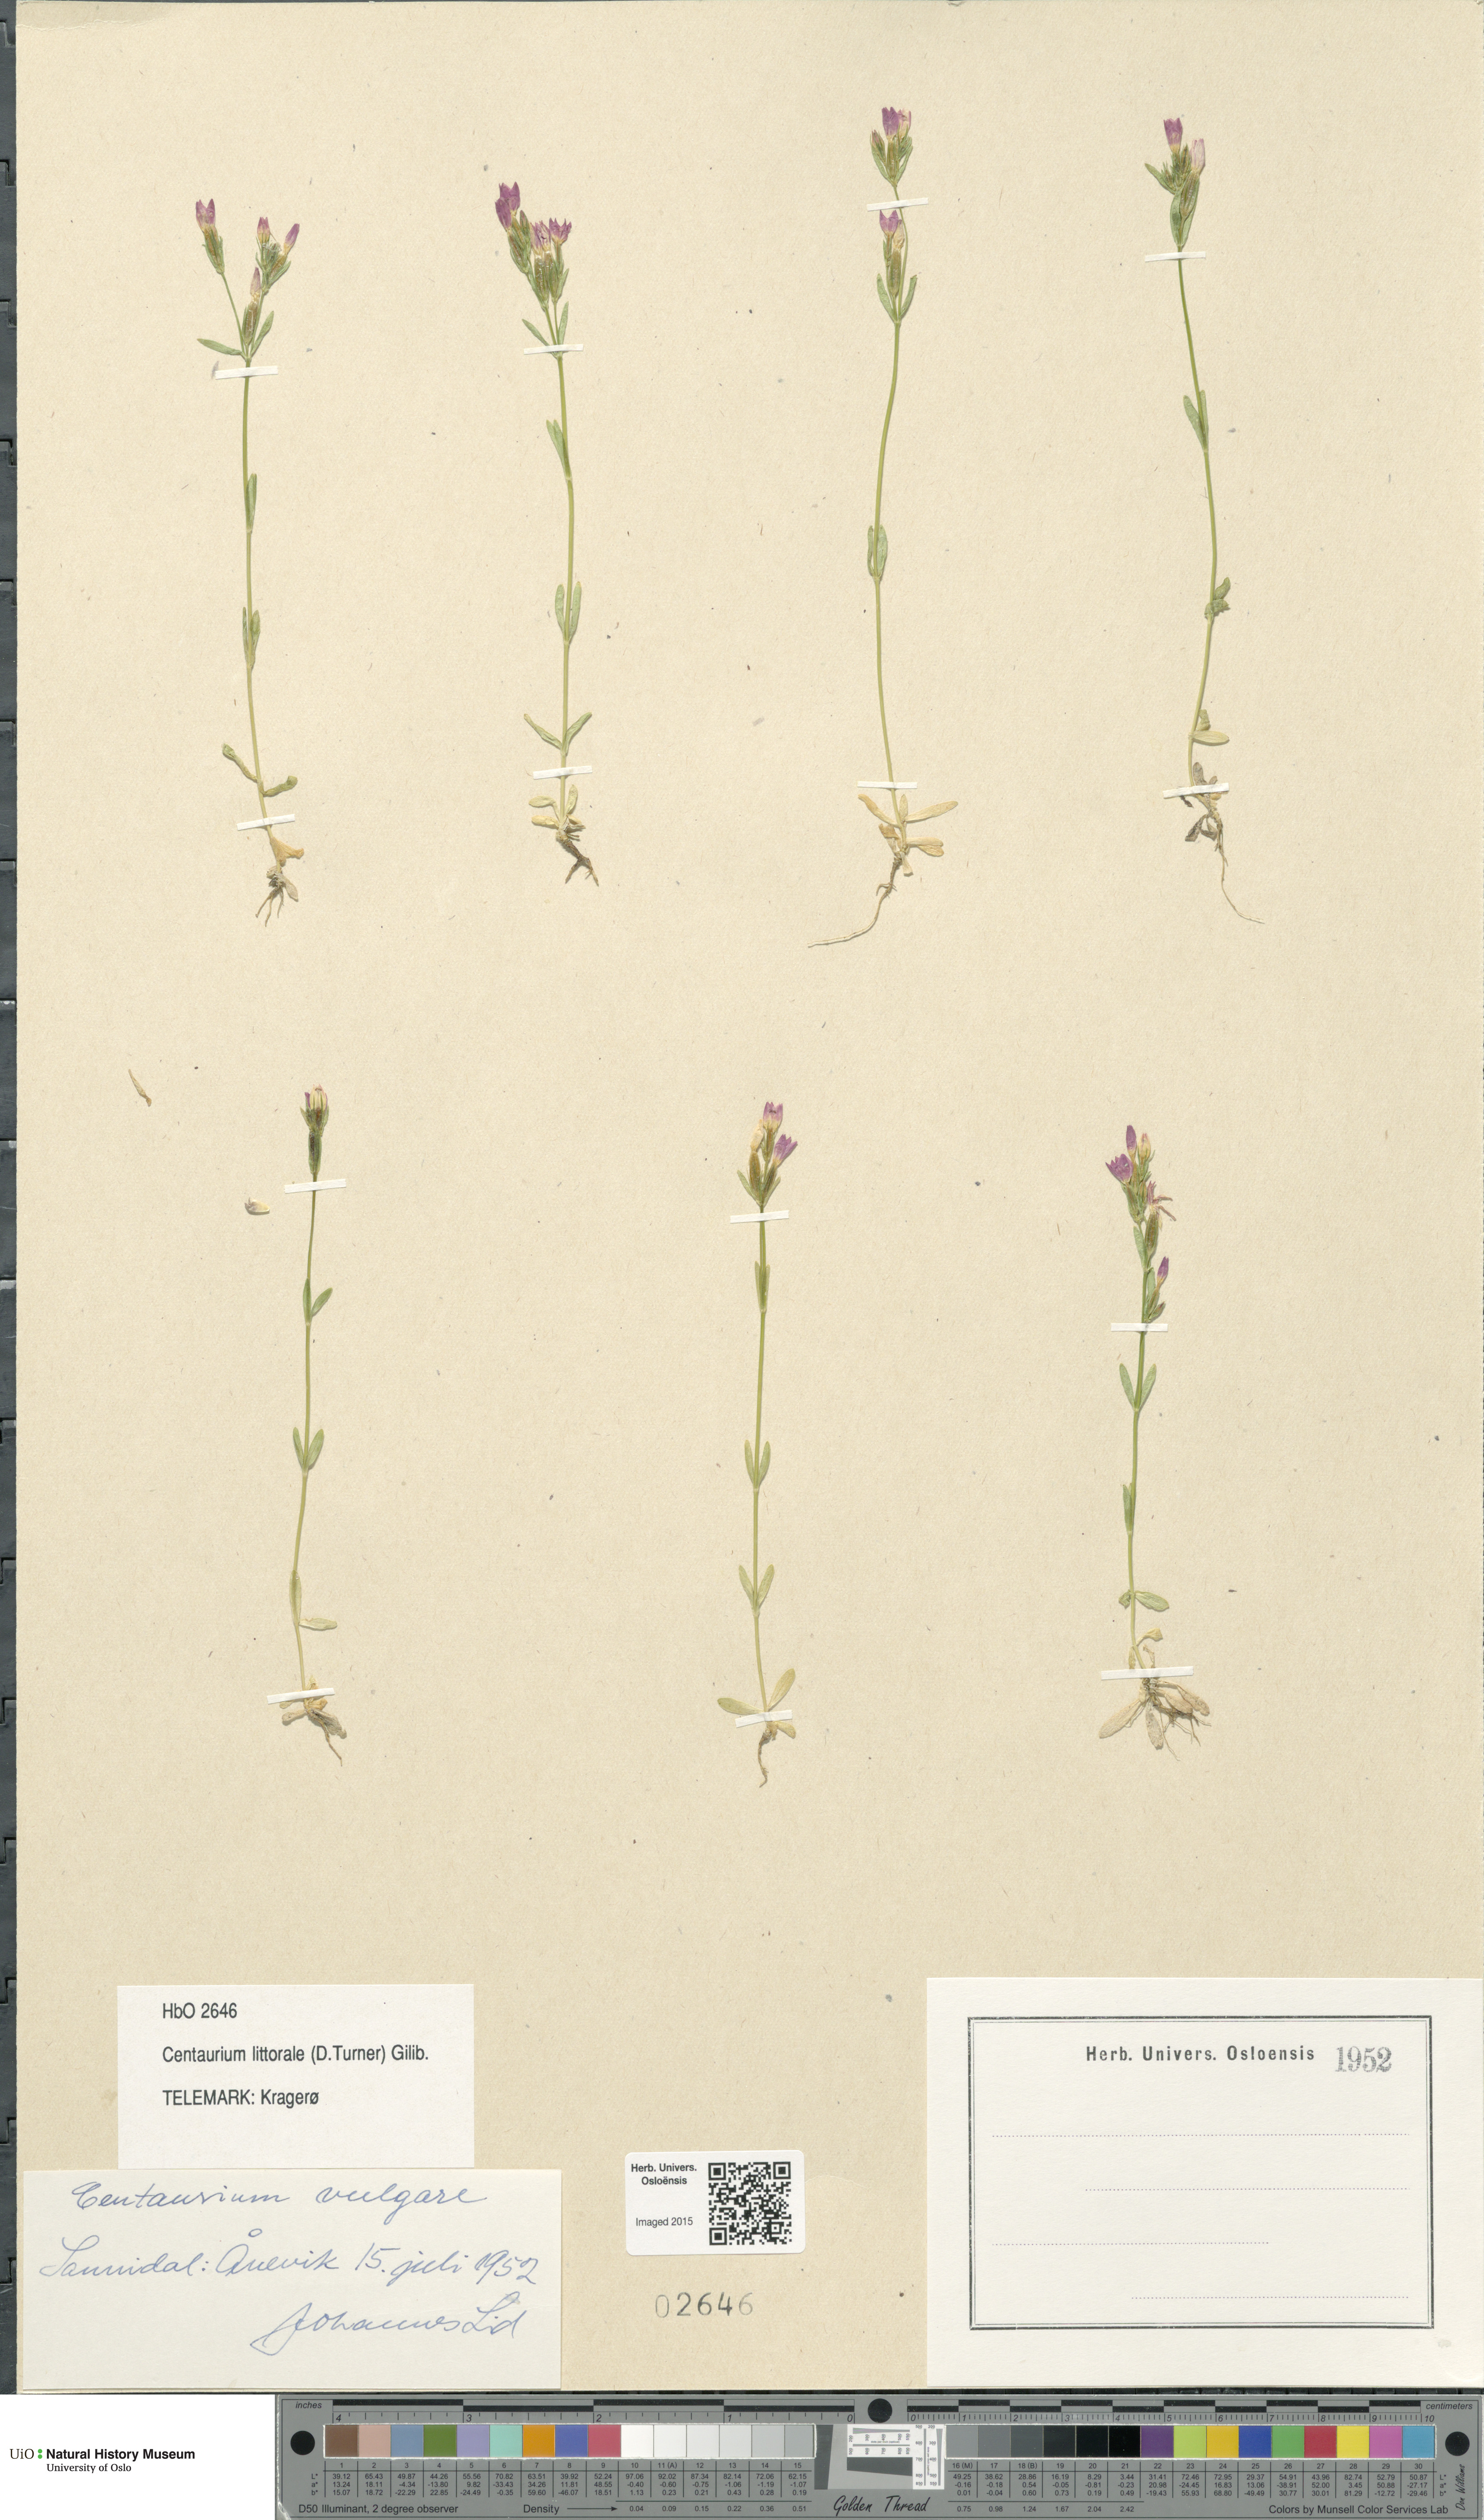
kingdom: Plantae
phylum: Tracheophyta
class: Magnoliopsida
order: Gentianales
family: Gentianaceae
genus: Centaurium
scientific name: Centaurium littorale
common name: Seaside centaury
